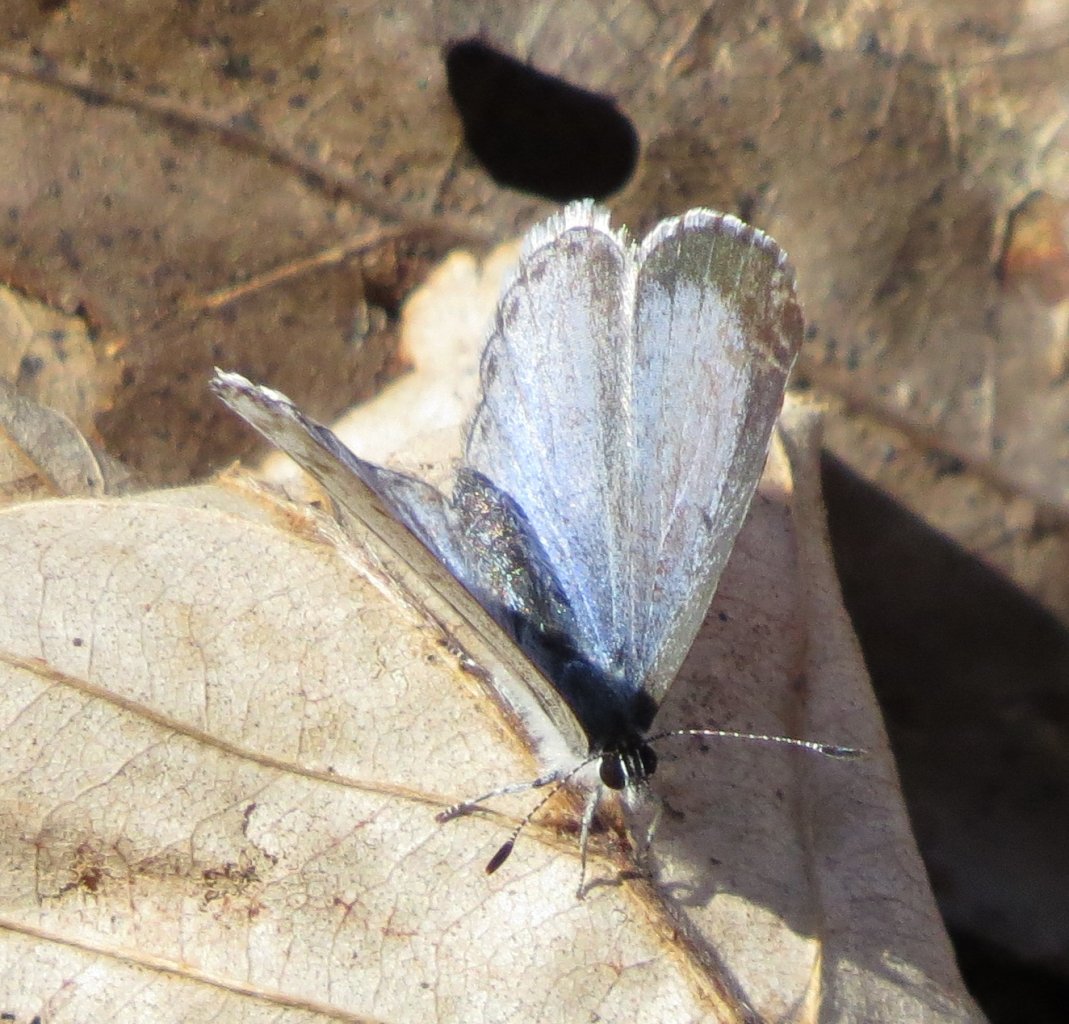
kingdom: Animalia
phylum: Arthropoda
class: Insecta
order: Lepidoptera
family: Lycaenidae
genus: Celastrina
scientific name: Celastrina ladon
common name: Spring Azure
